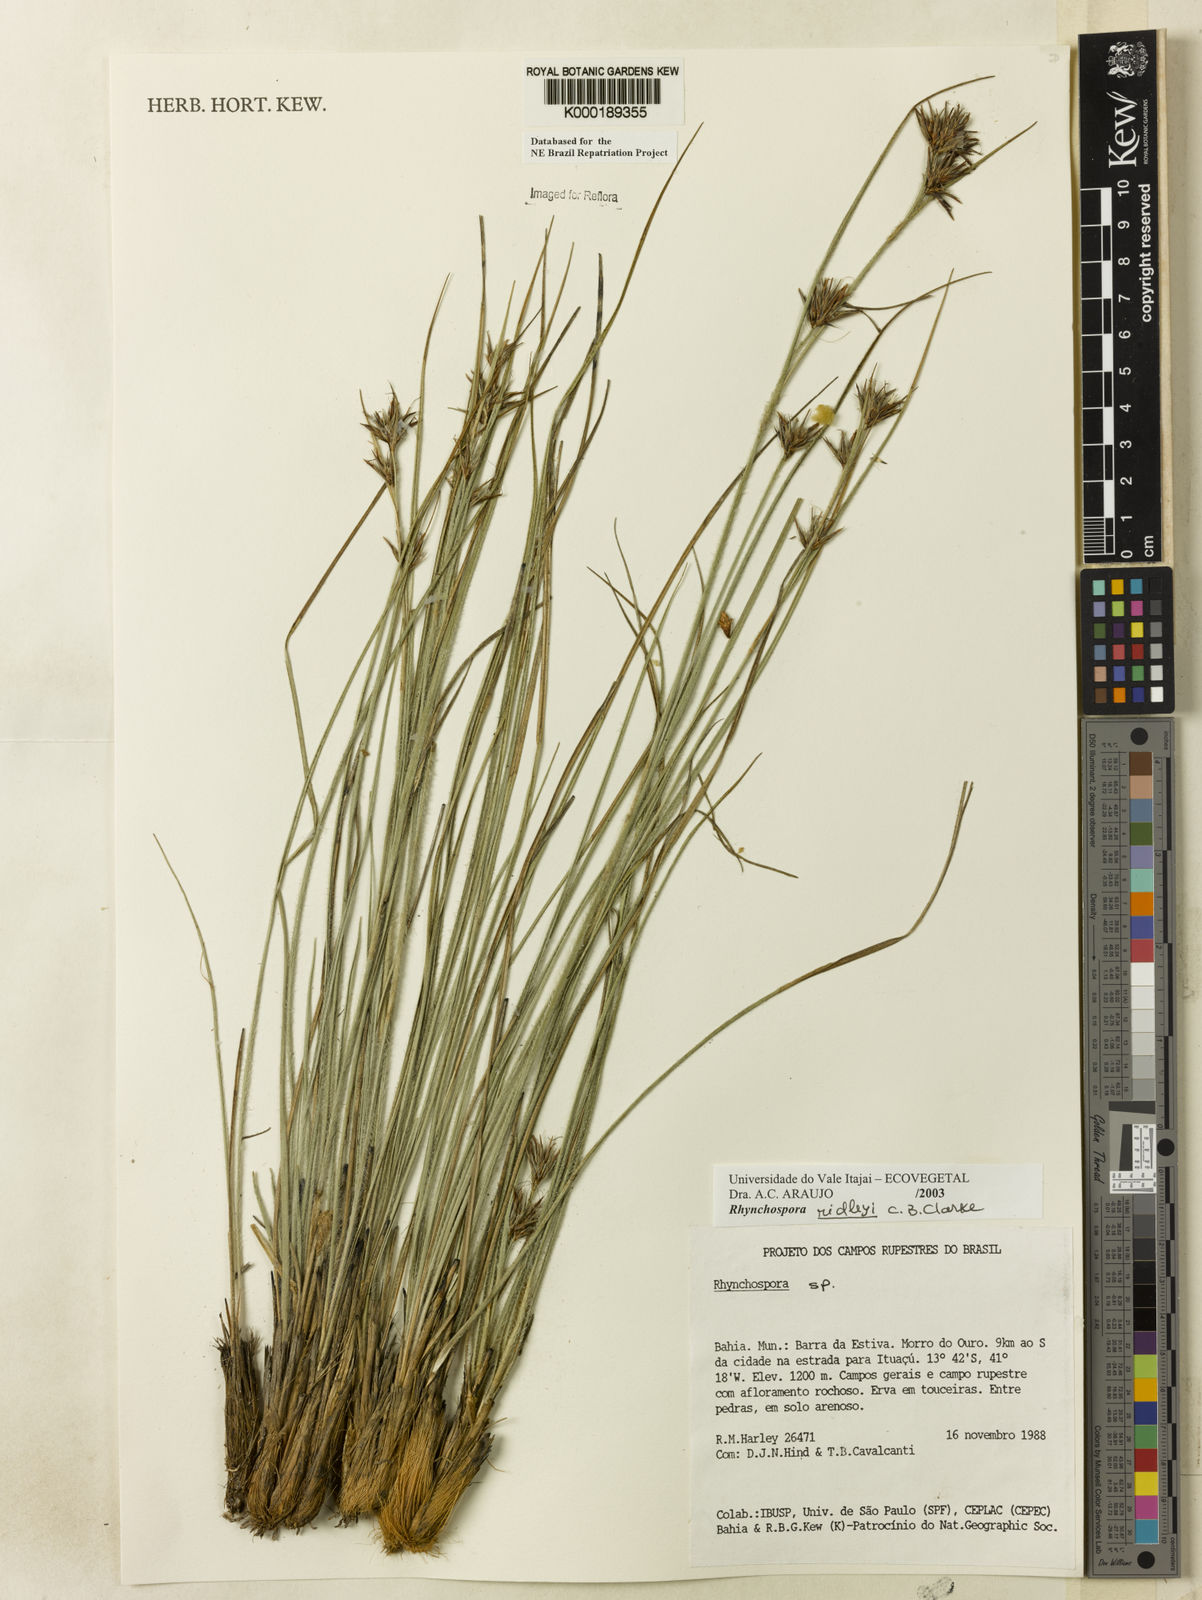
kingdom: Plantae
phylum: Tracheophyta
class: Liliopsida
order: Poales
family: Cyperaceae
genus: Rhynchospora
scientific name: Rhynchospora ridleyi
